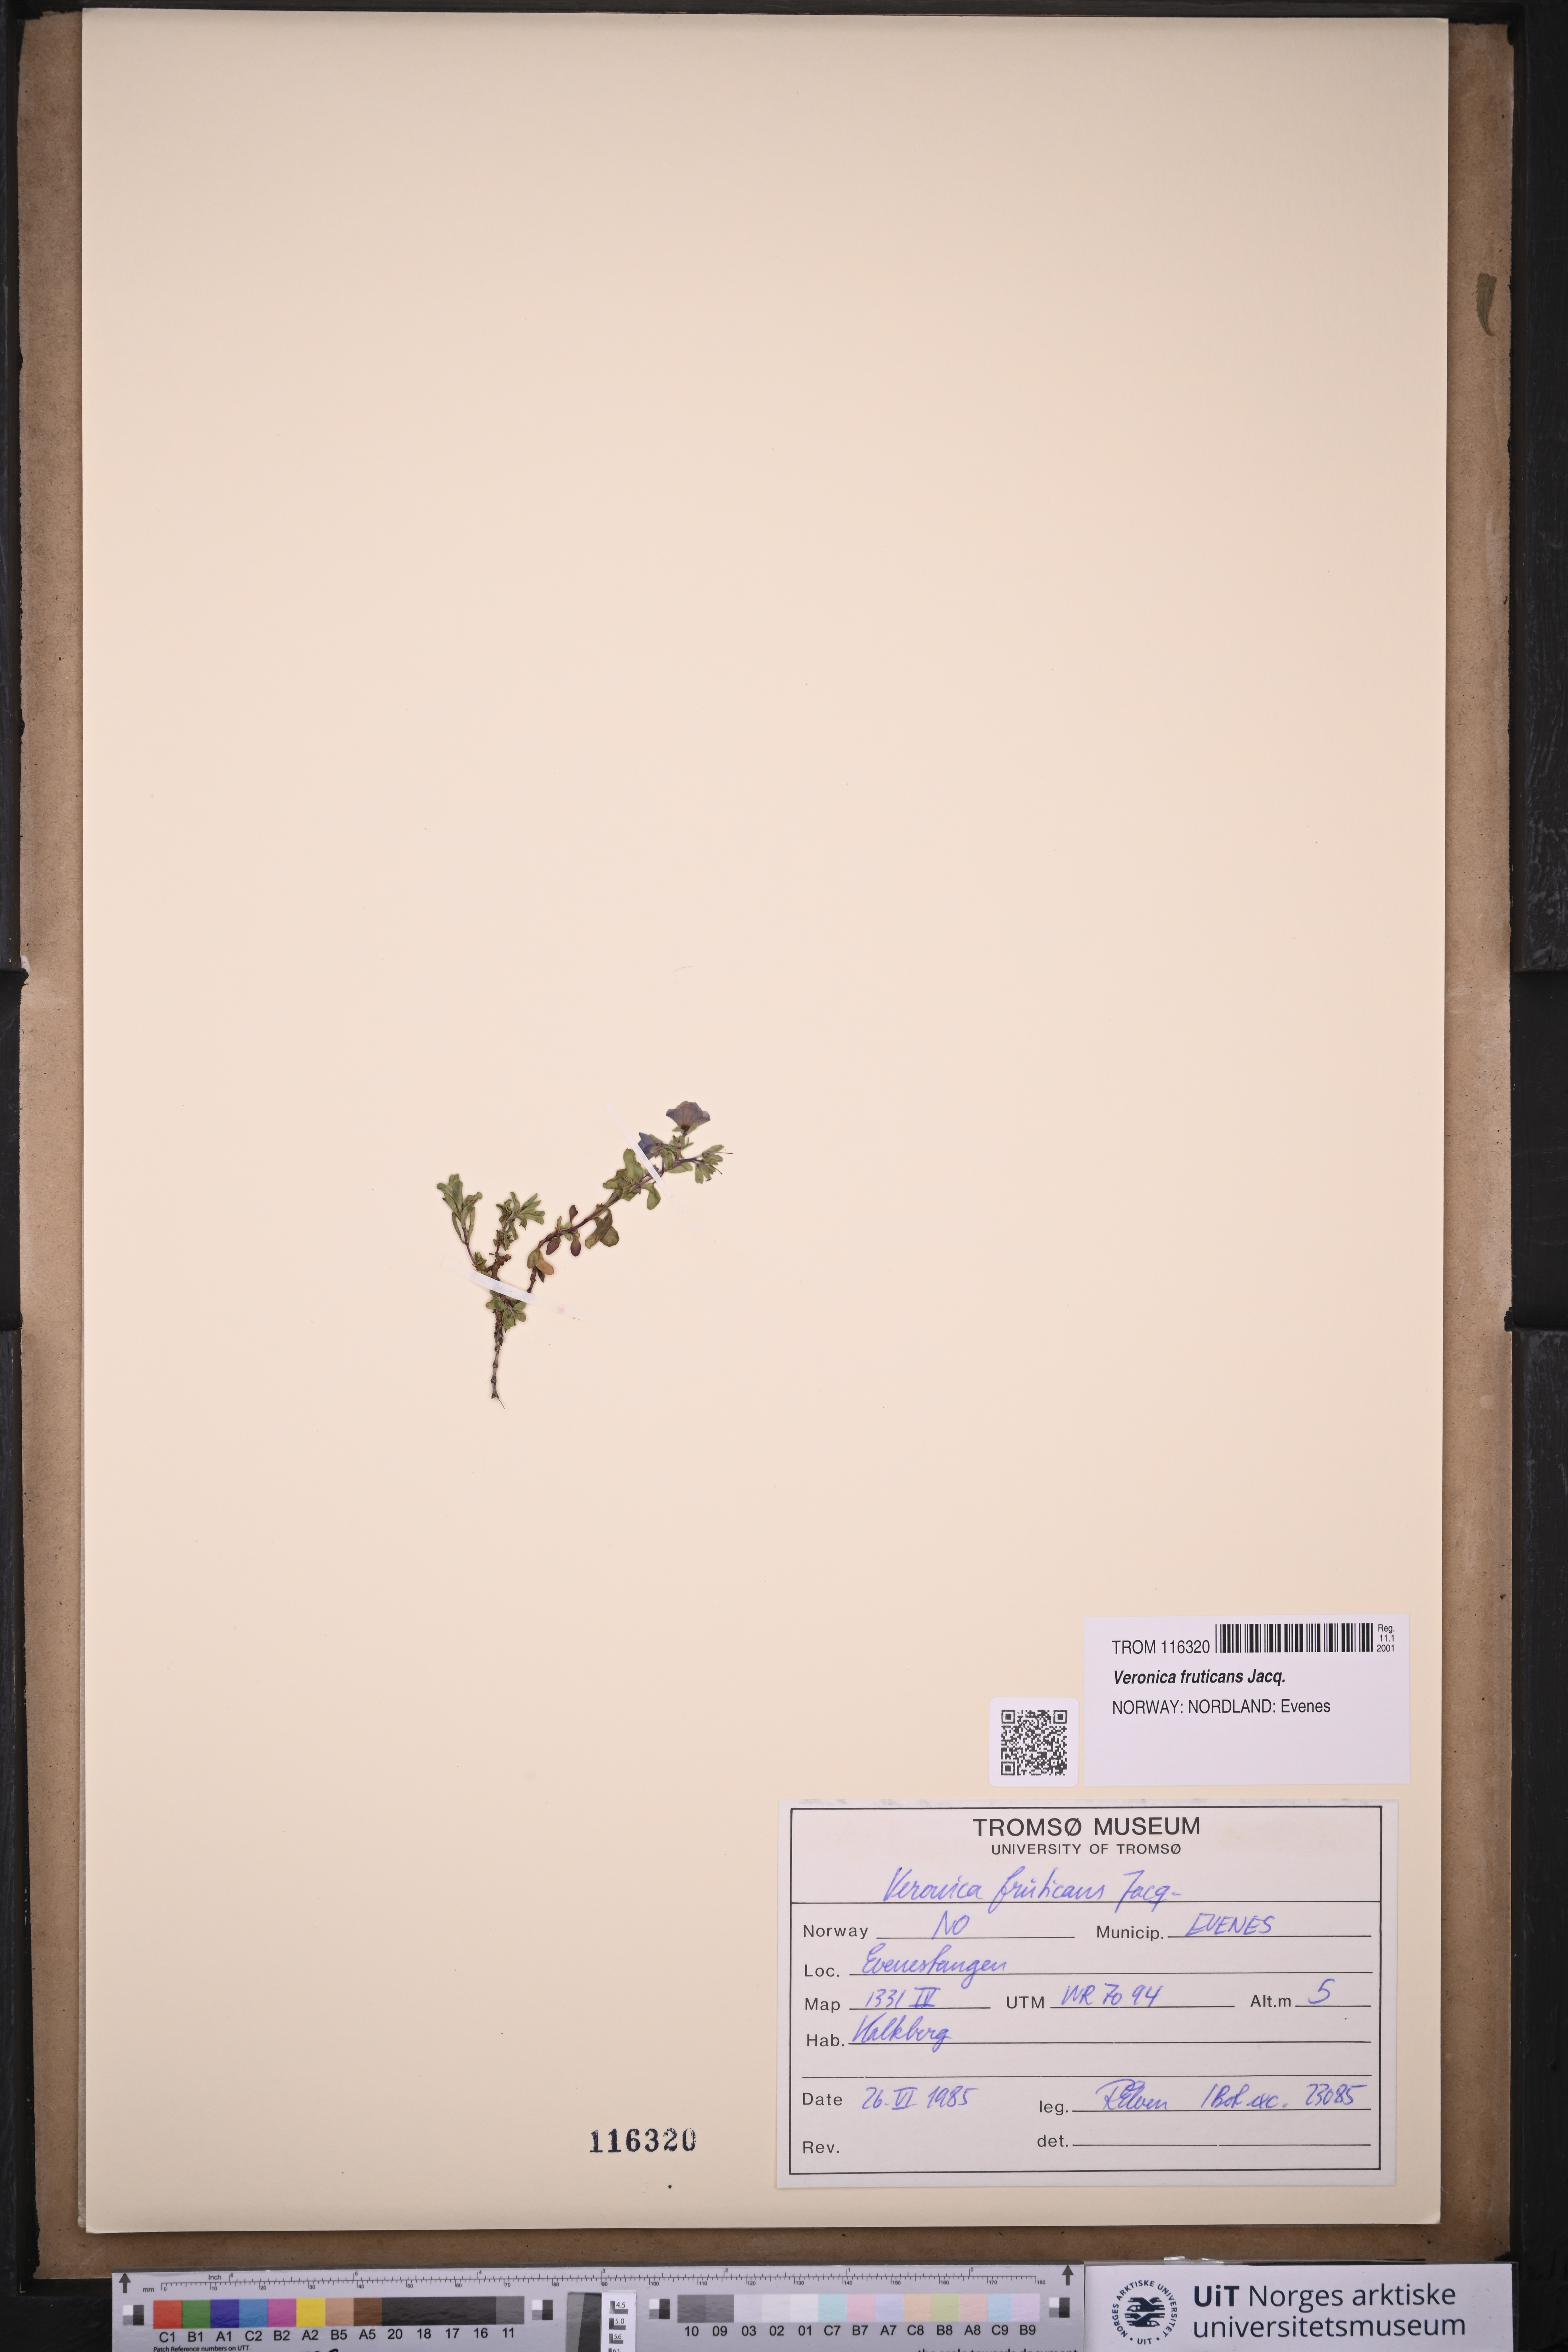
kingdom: Plantae
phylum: Tracheophyta
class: Magnoliopsida
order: Lamiales
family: Plantaginaceae
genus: Veronica
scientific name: Veronica fruticans
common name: Rock speedwell
